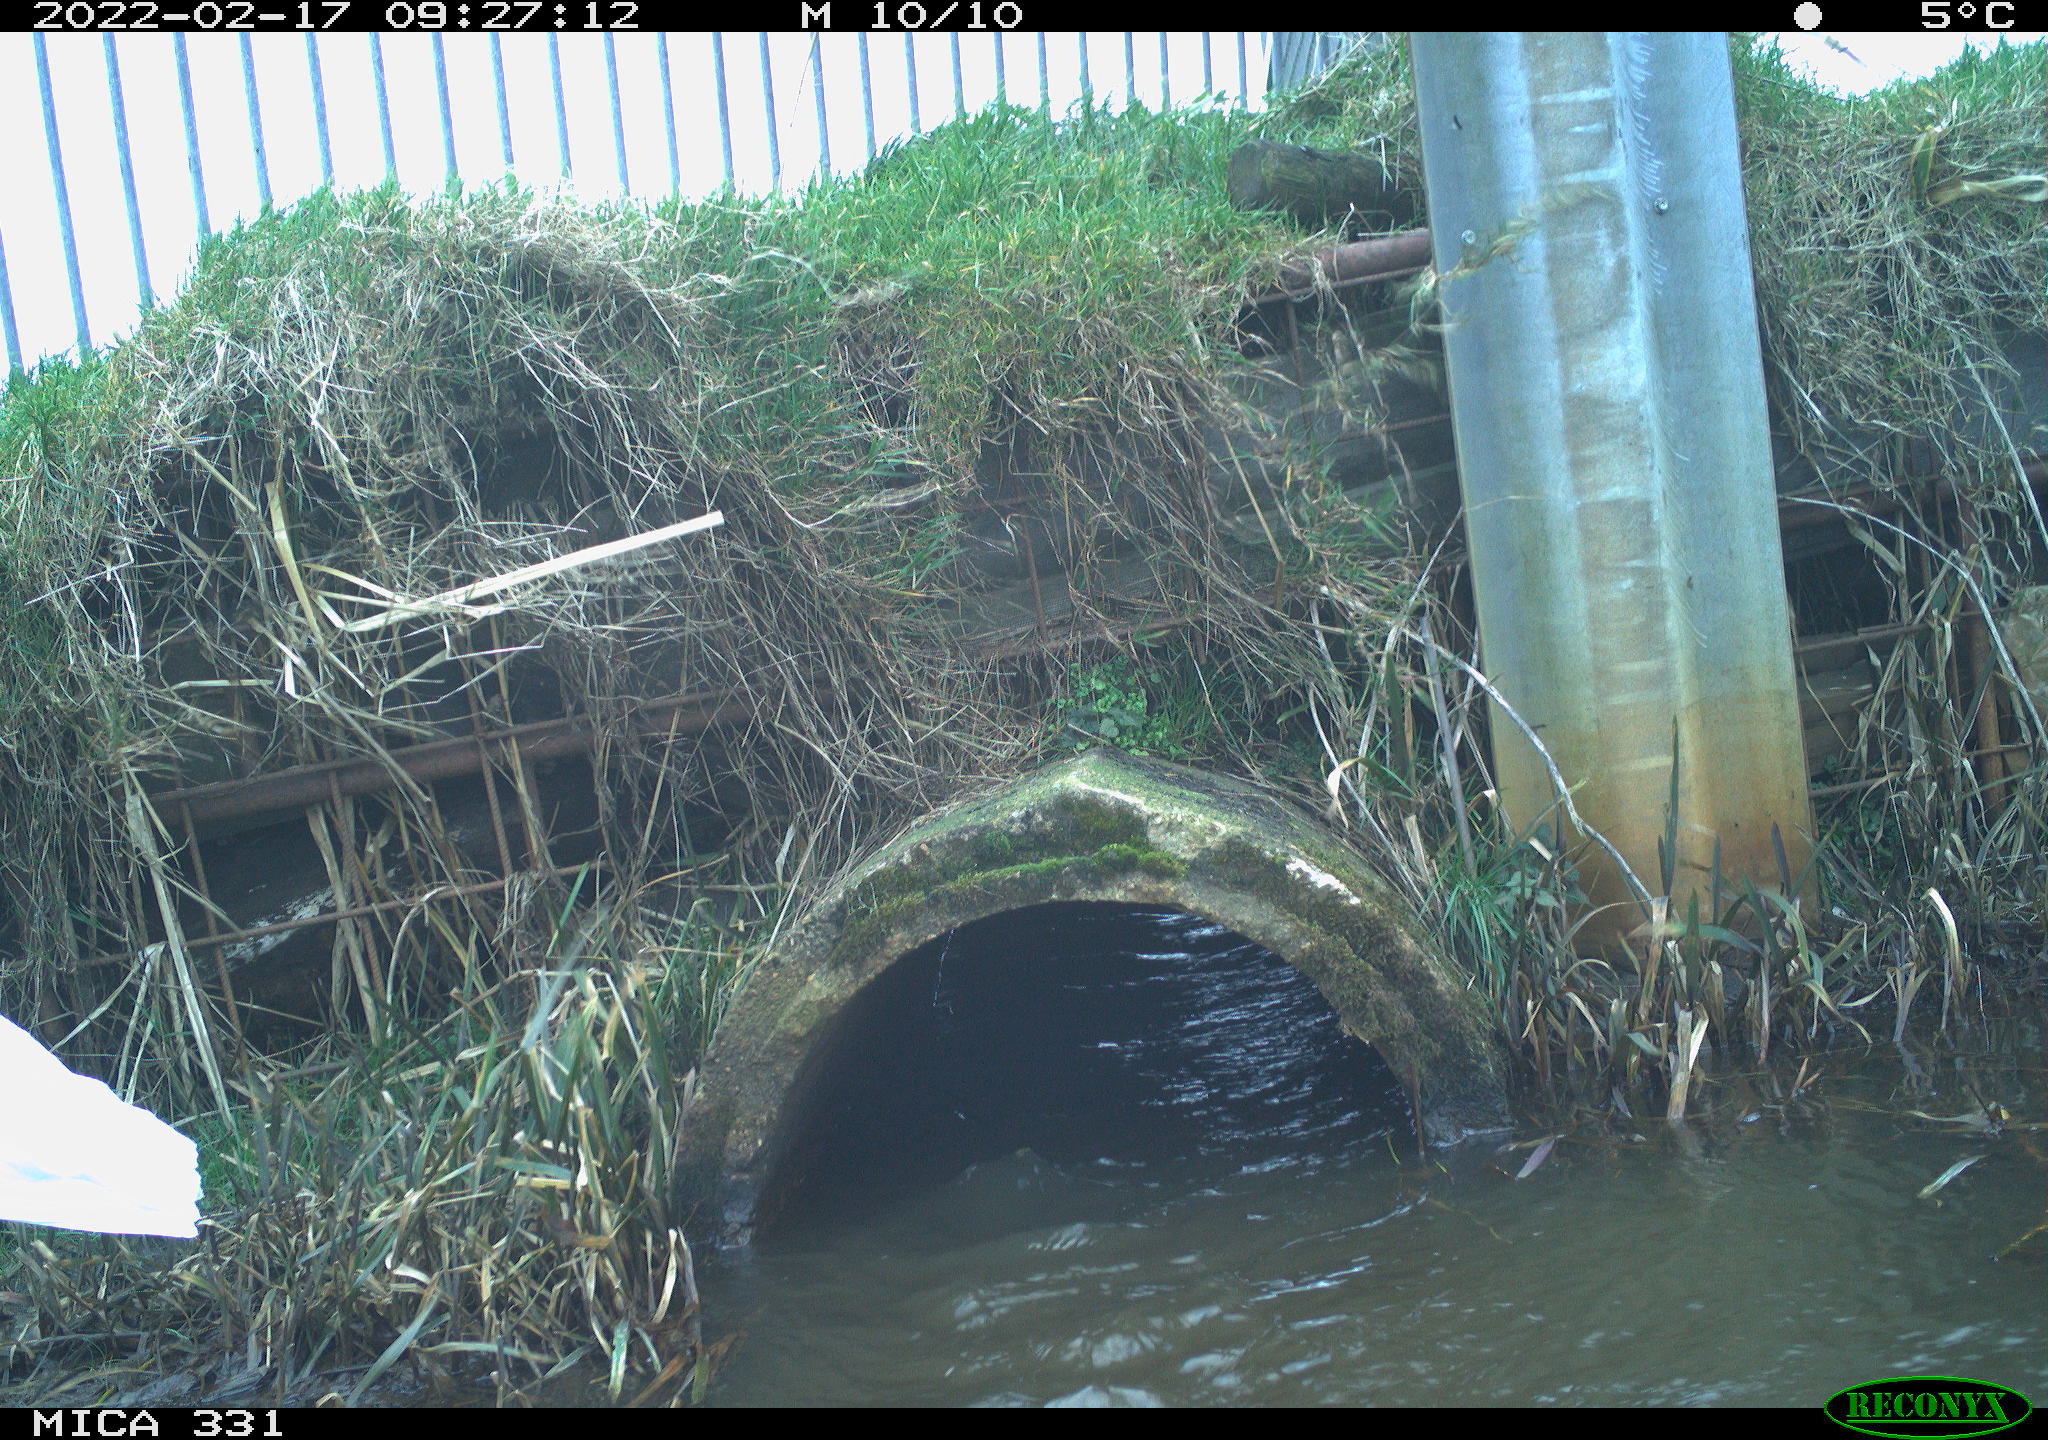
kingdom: Animalia
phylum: Chordata
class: Aves
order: Pelecaniformes
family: Ardeidae
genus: Ardea
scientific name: Ardea alba
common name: Great egret
